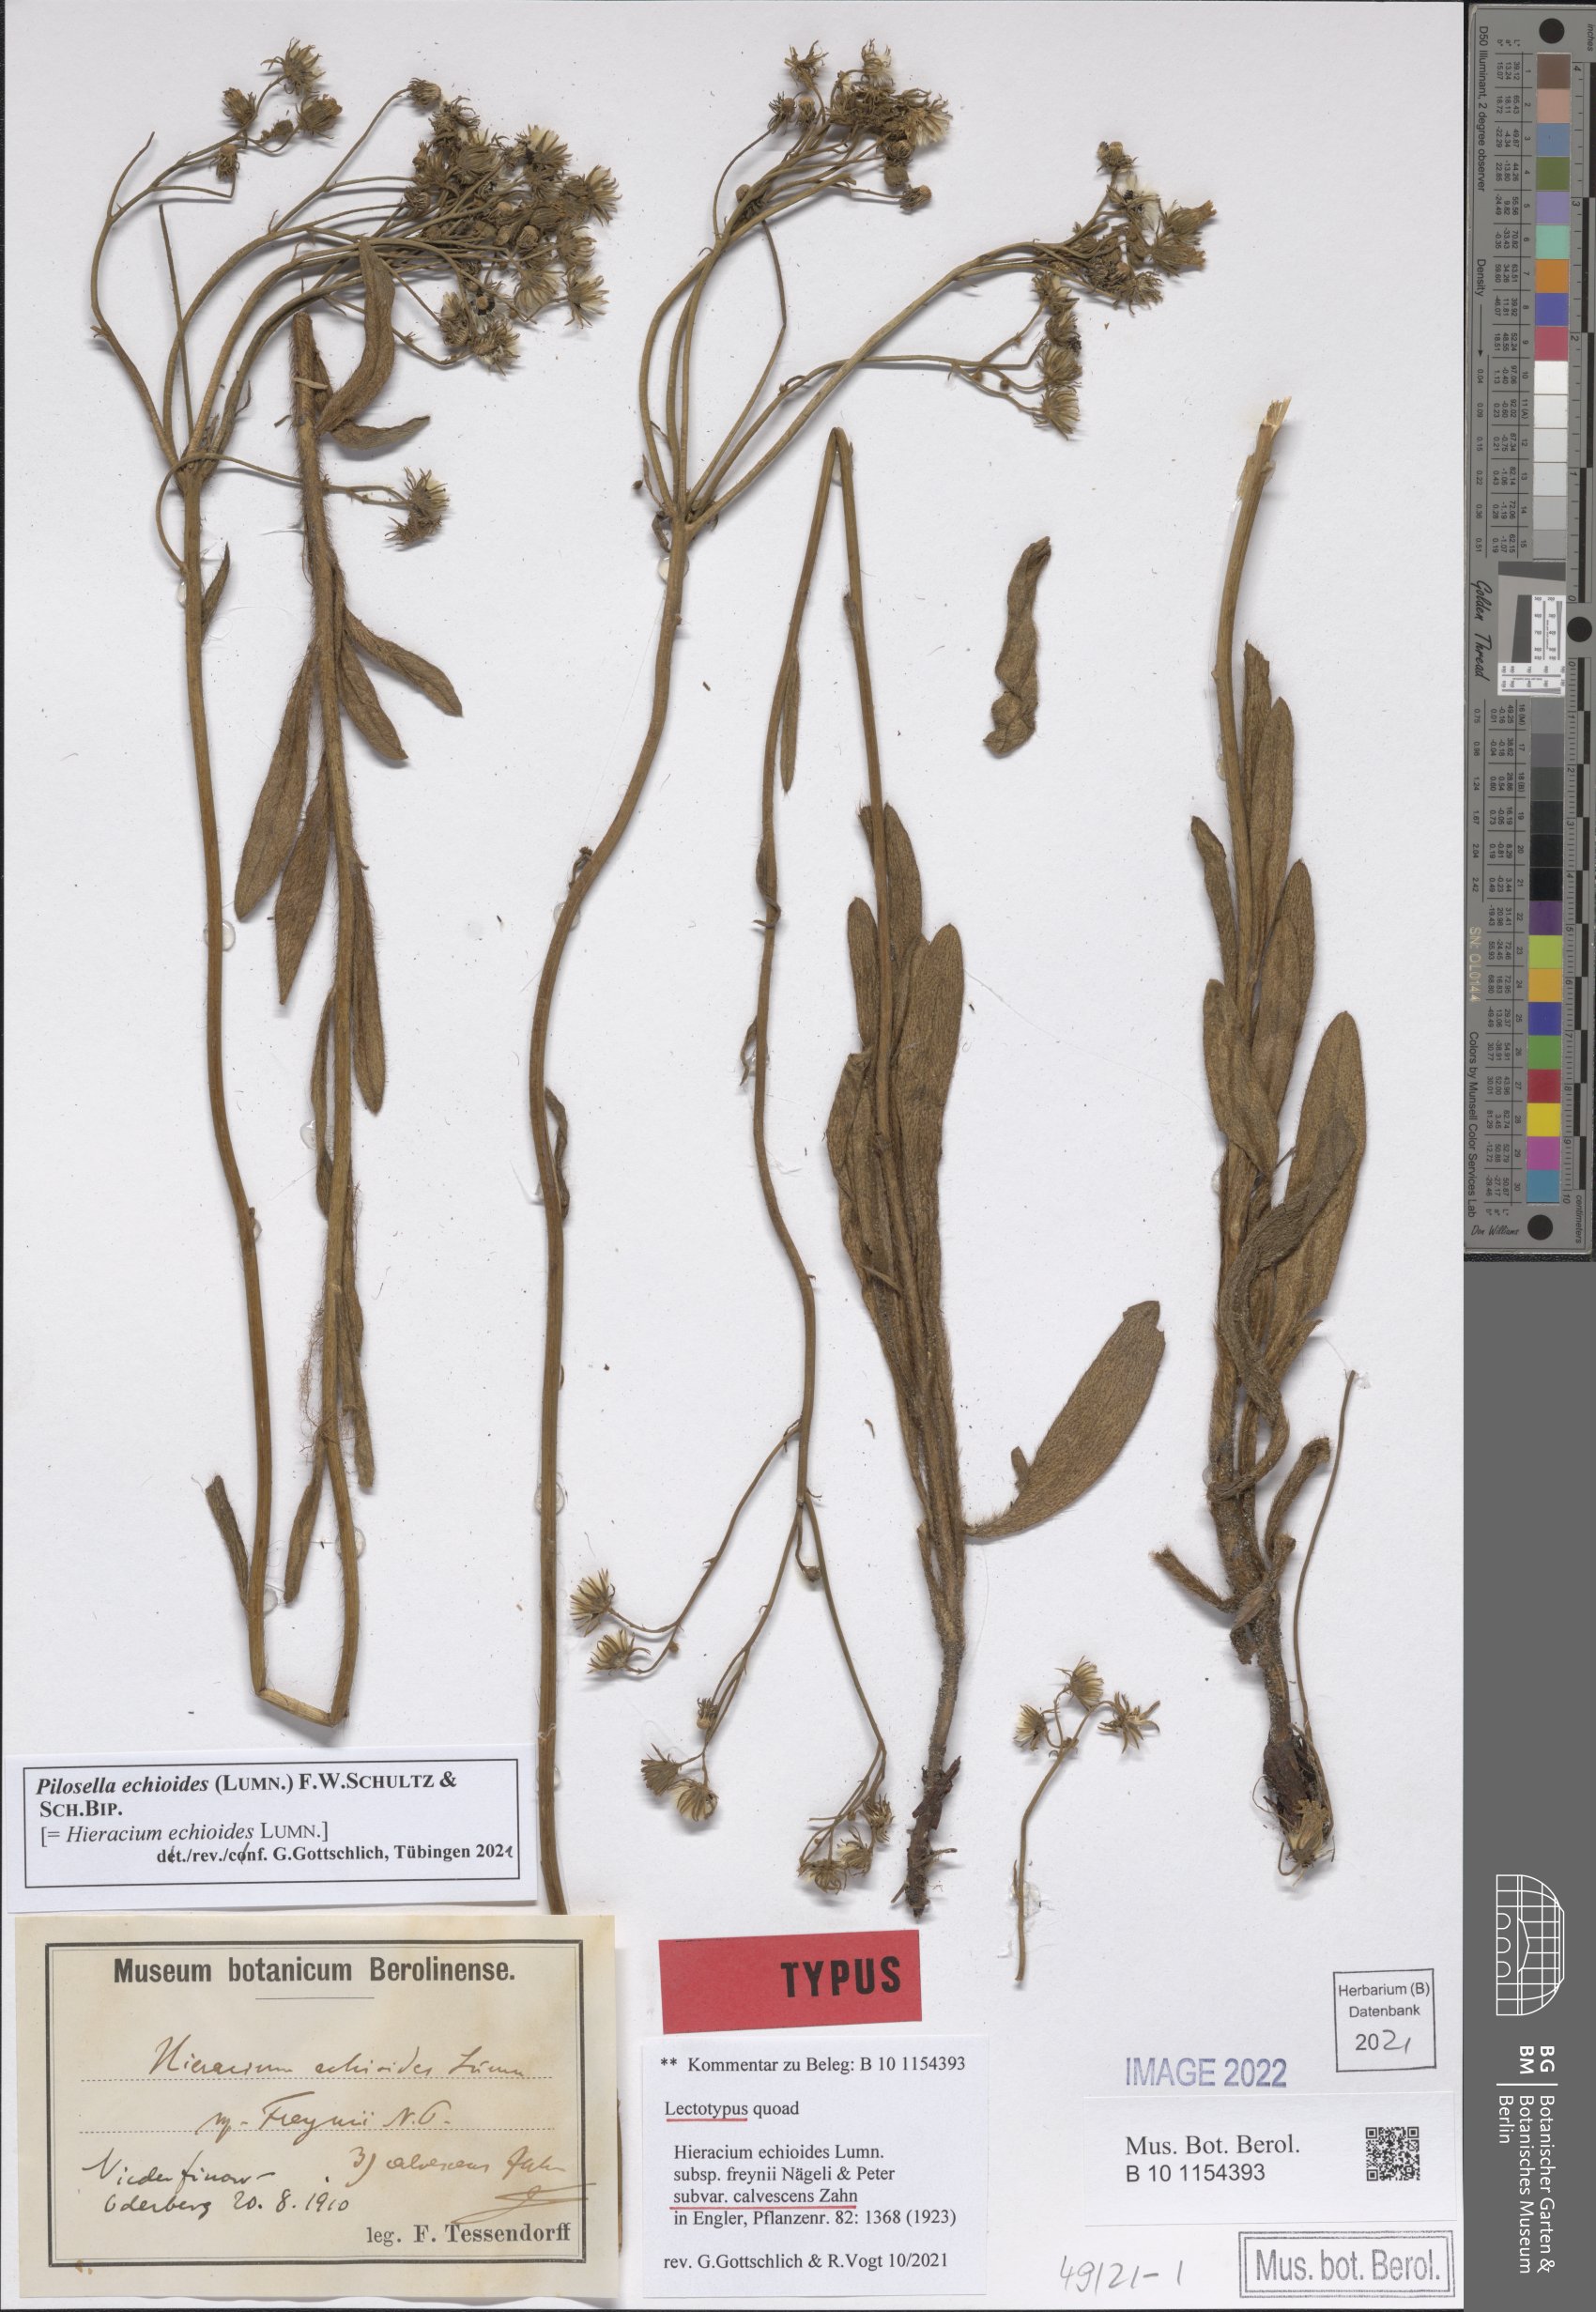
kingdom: Plantae
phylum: Tracheophyta
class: Magnoliopsida
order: Asterales
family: Asteraceae
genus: Pilosella
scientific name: Pilosella echioides
